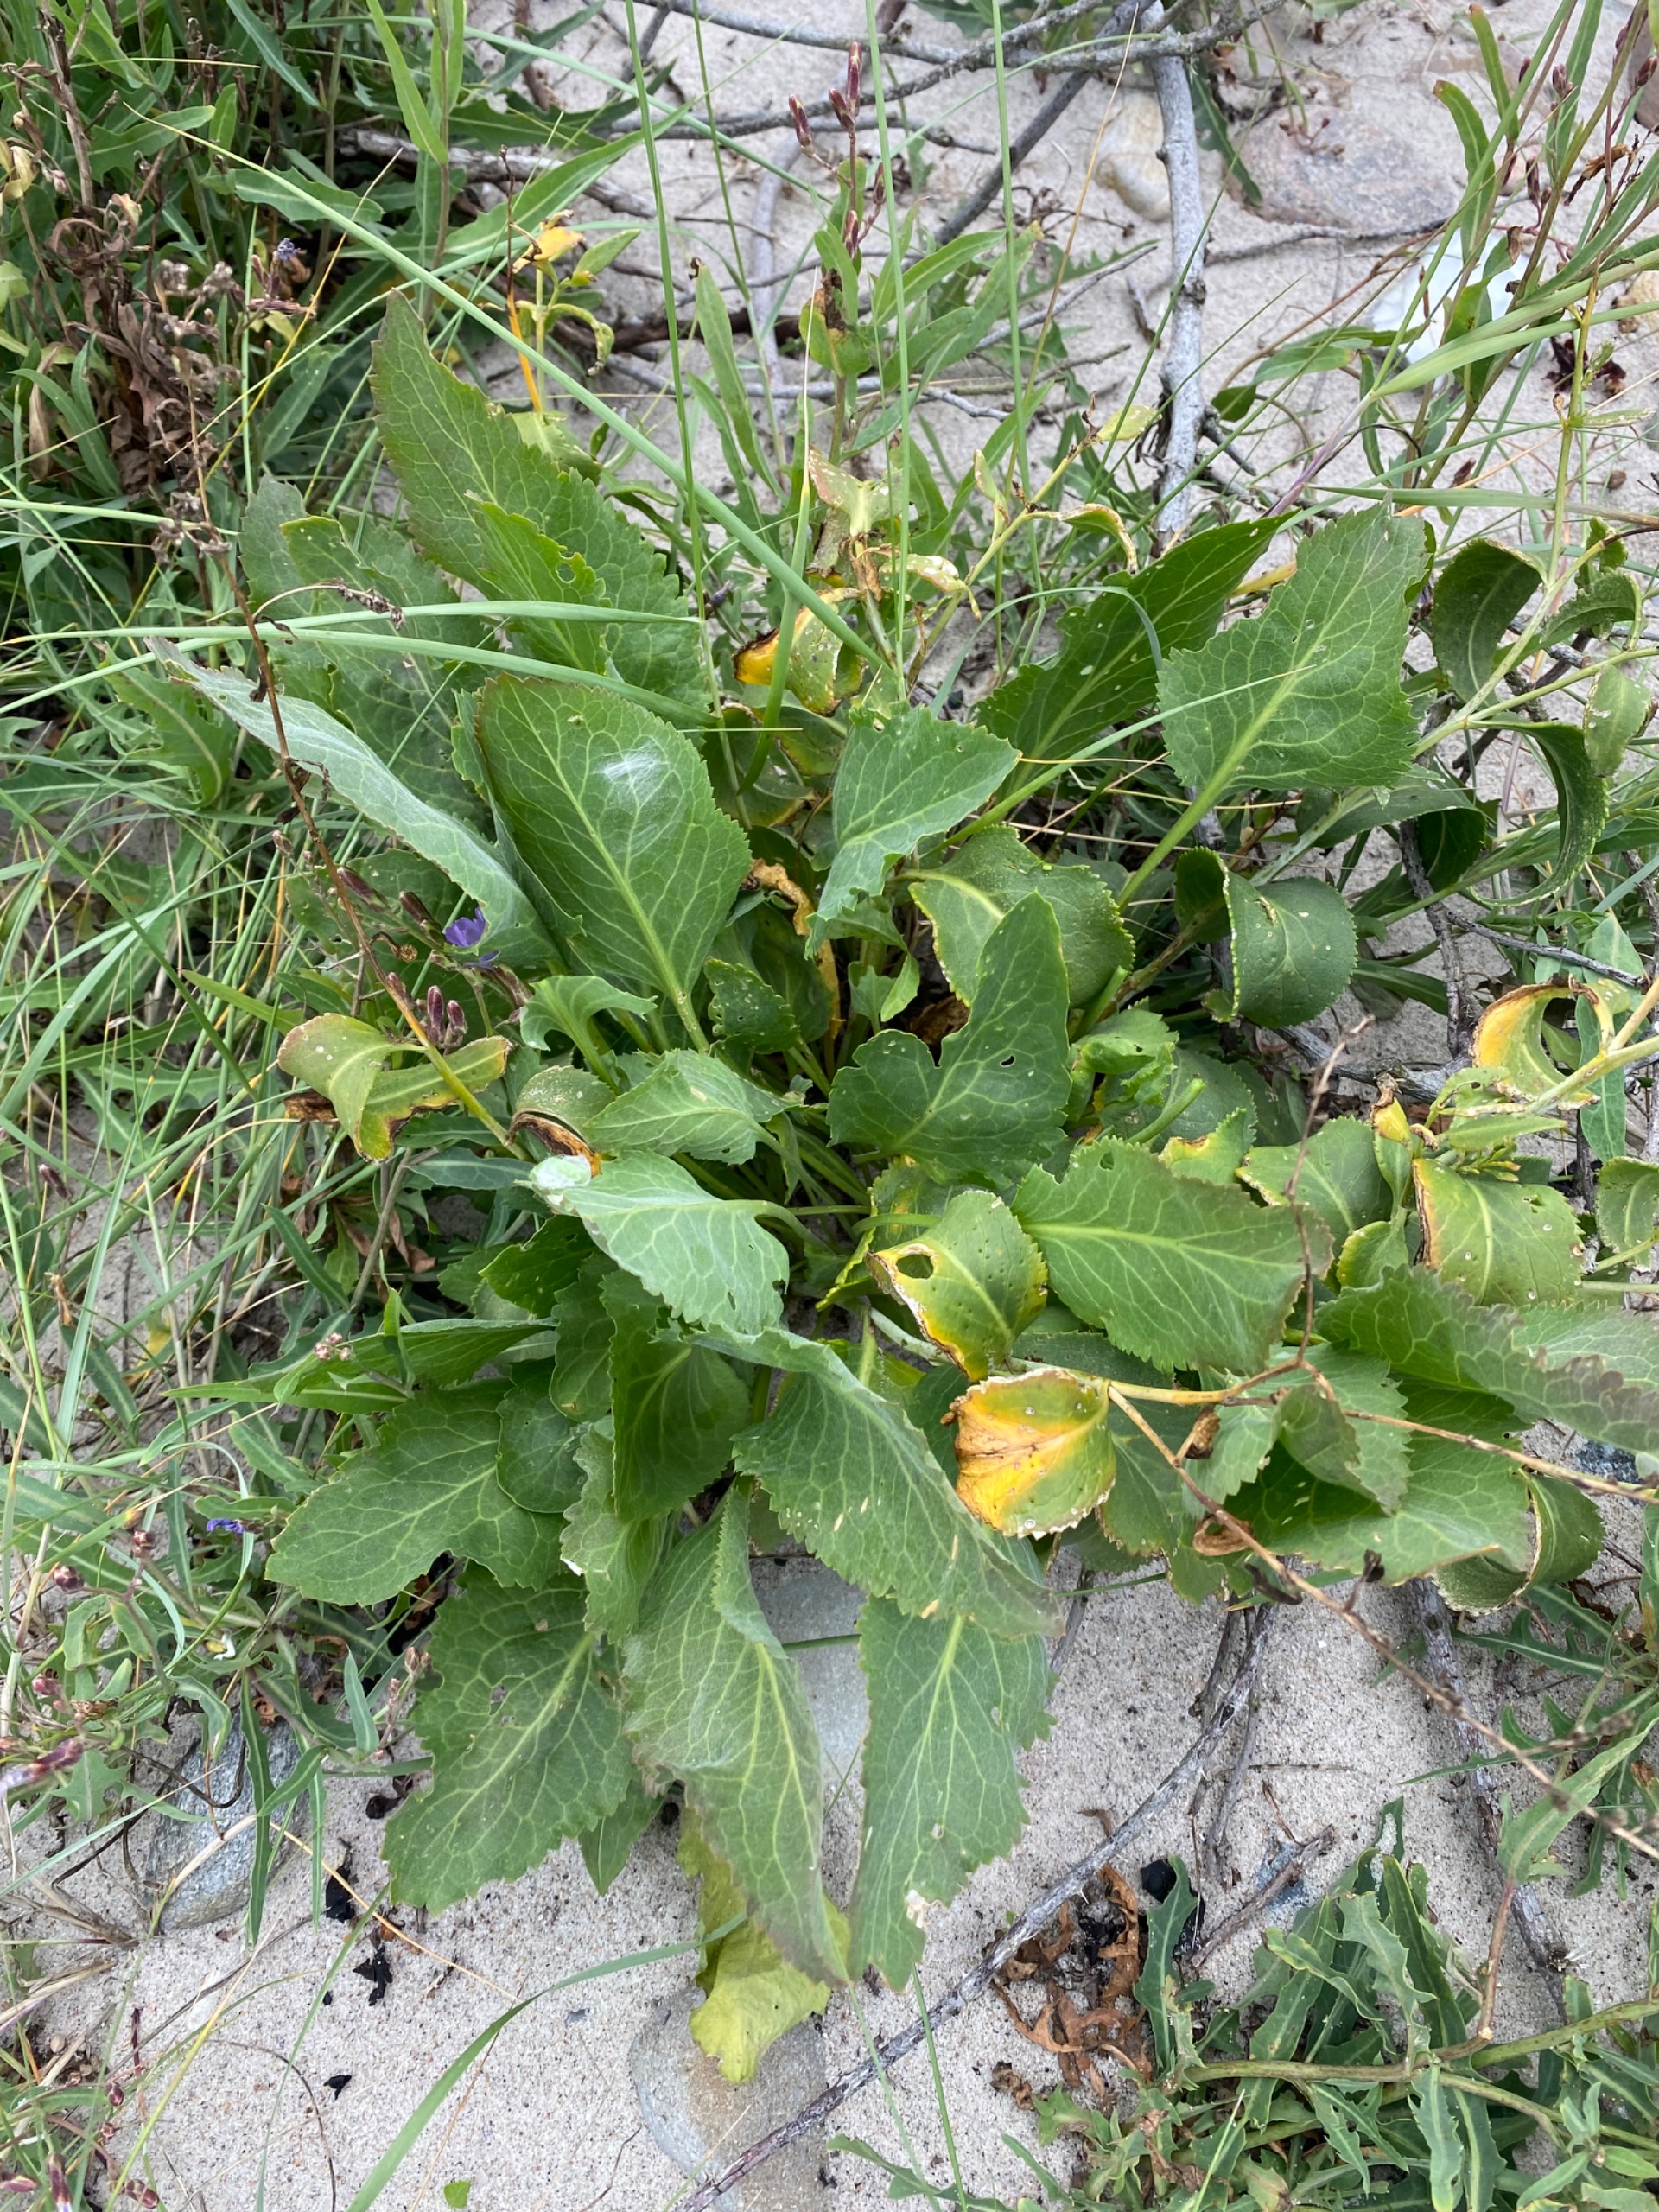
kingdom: Plantae
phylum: Tracheophyta
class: Magnoliopsida
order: Brassicales
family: Brassicaceae
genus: Lepidium
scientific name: Lepidium latifolium
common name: Strand-karse
